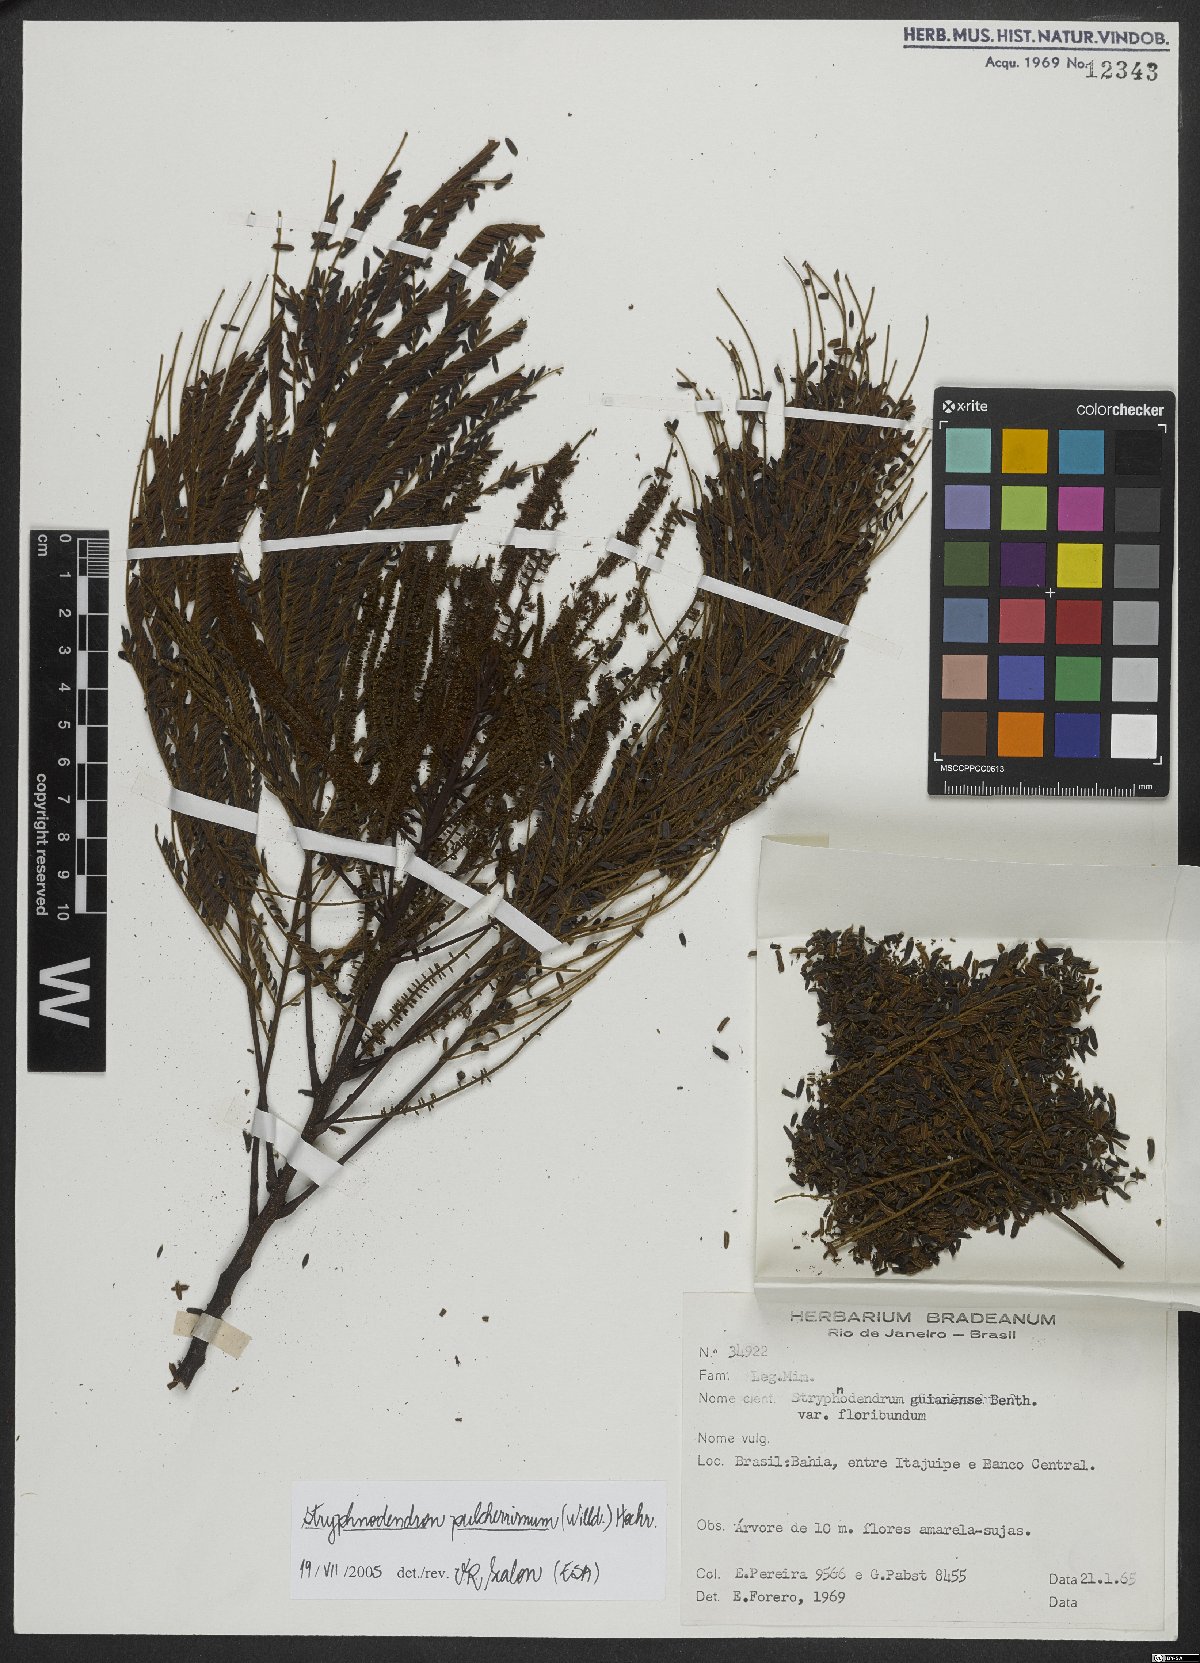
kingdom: Plantae
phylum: Tracheophyta
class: Magnoliopsida
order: Fabales
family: Fabaceae
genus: Stryphnodendron
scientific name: Stryphnodendron pulcherrimum
